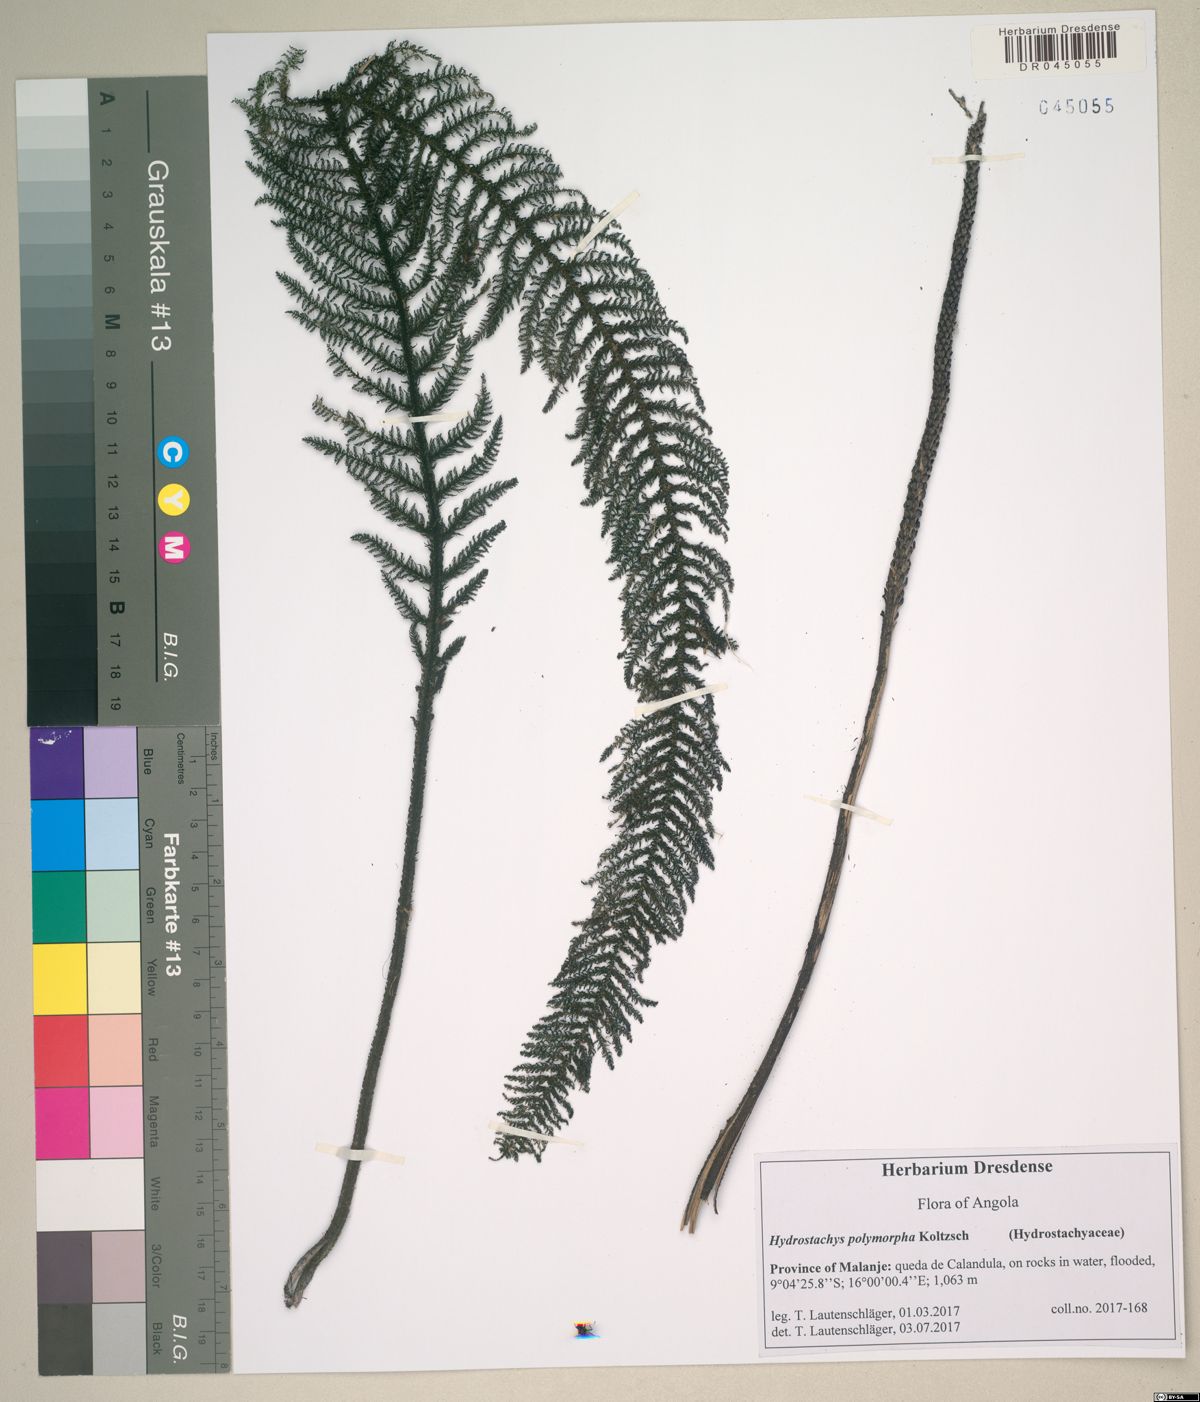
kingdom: Plantae
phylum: Tracheophyta
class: Magnoliopsida
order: Cornales
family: Hydrostachyaceae
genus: Hydrostachys
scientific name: Hydrostachys polymorpha
